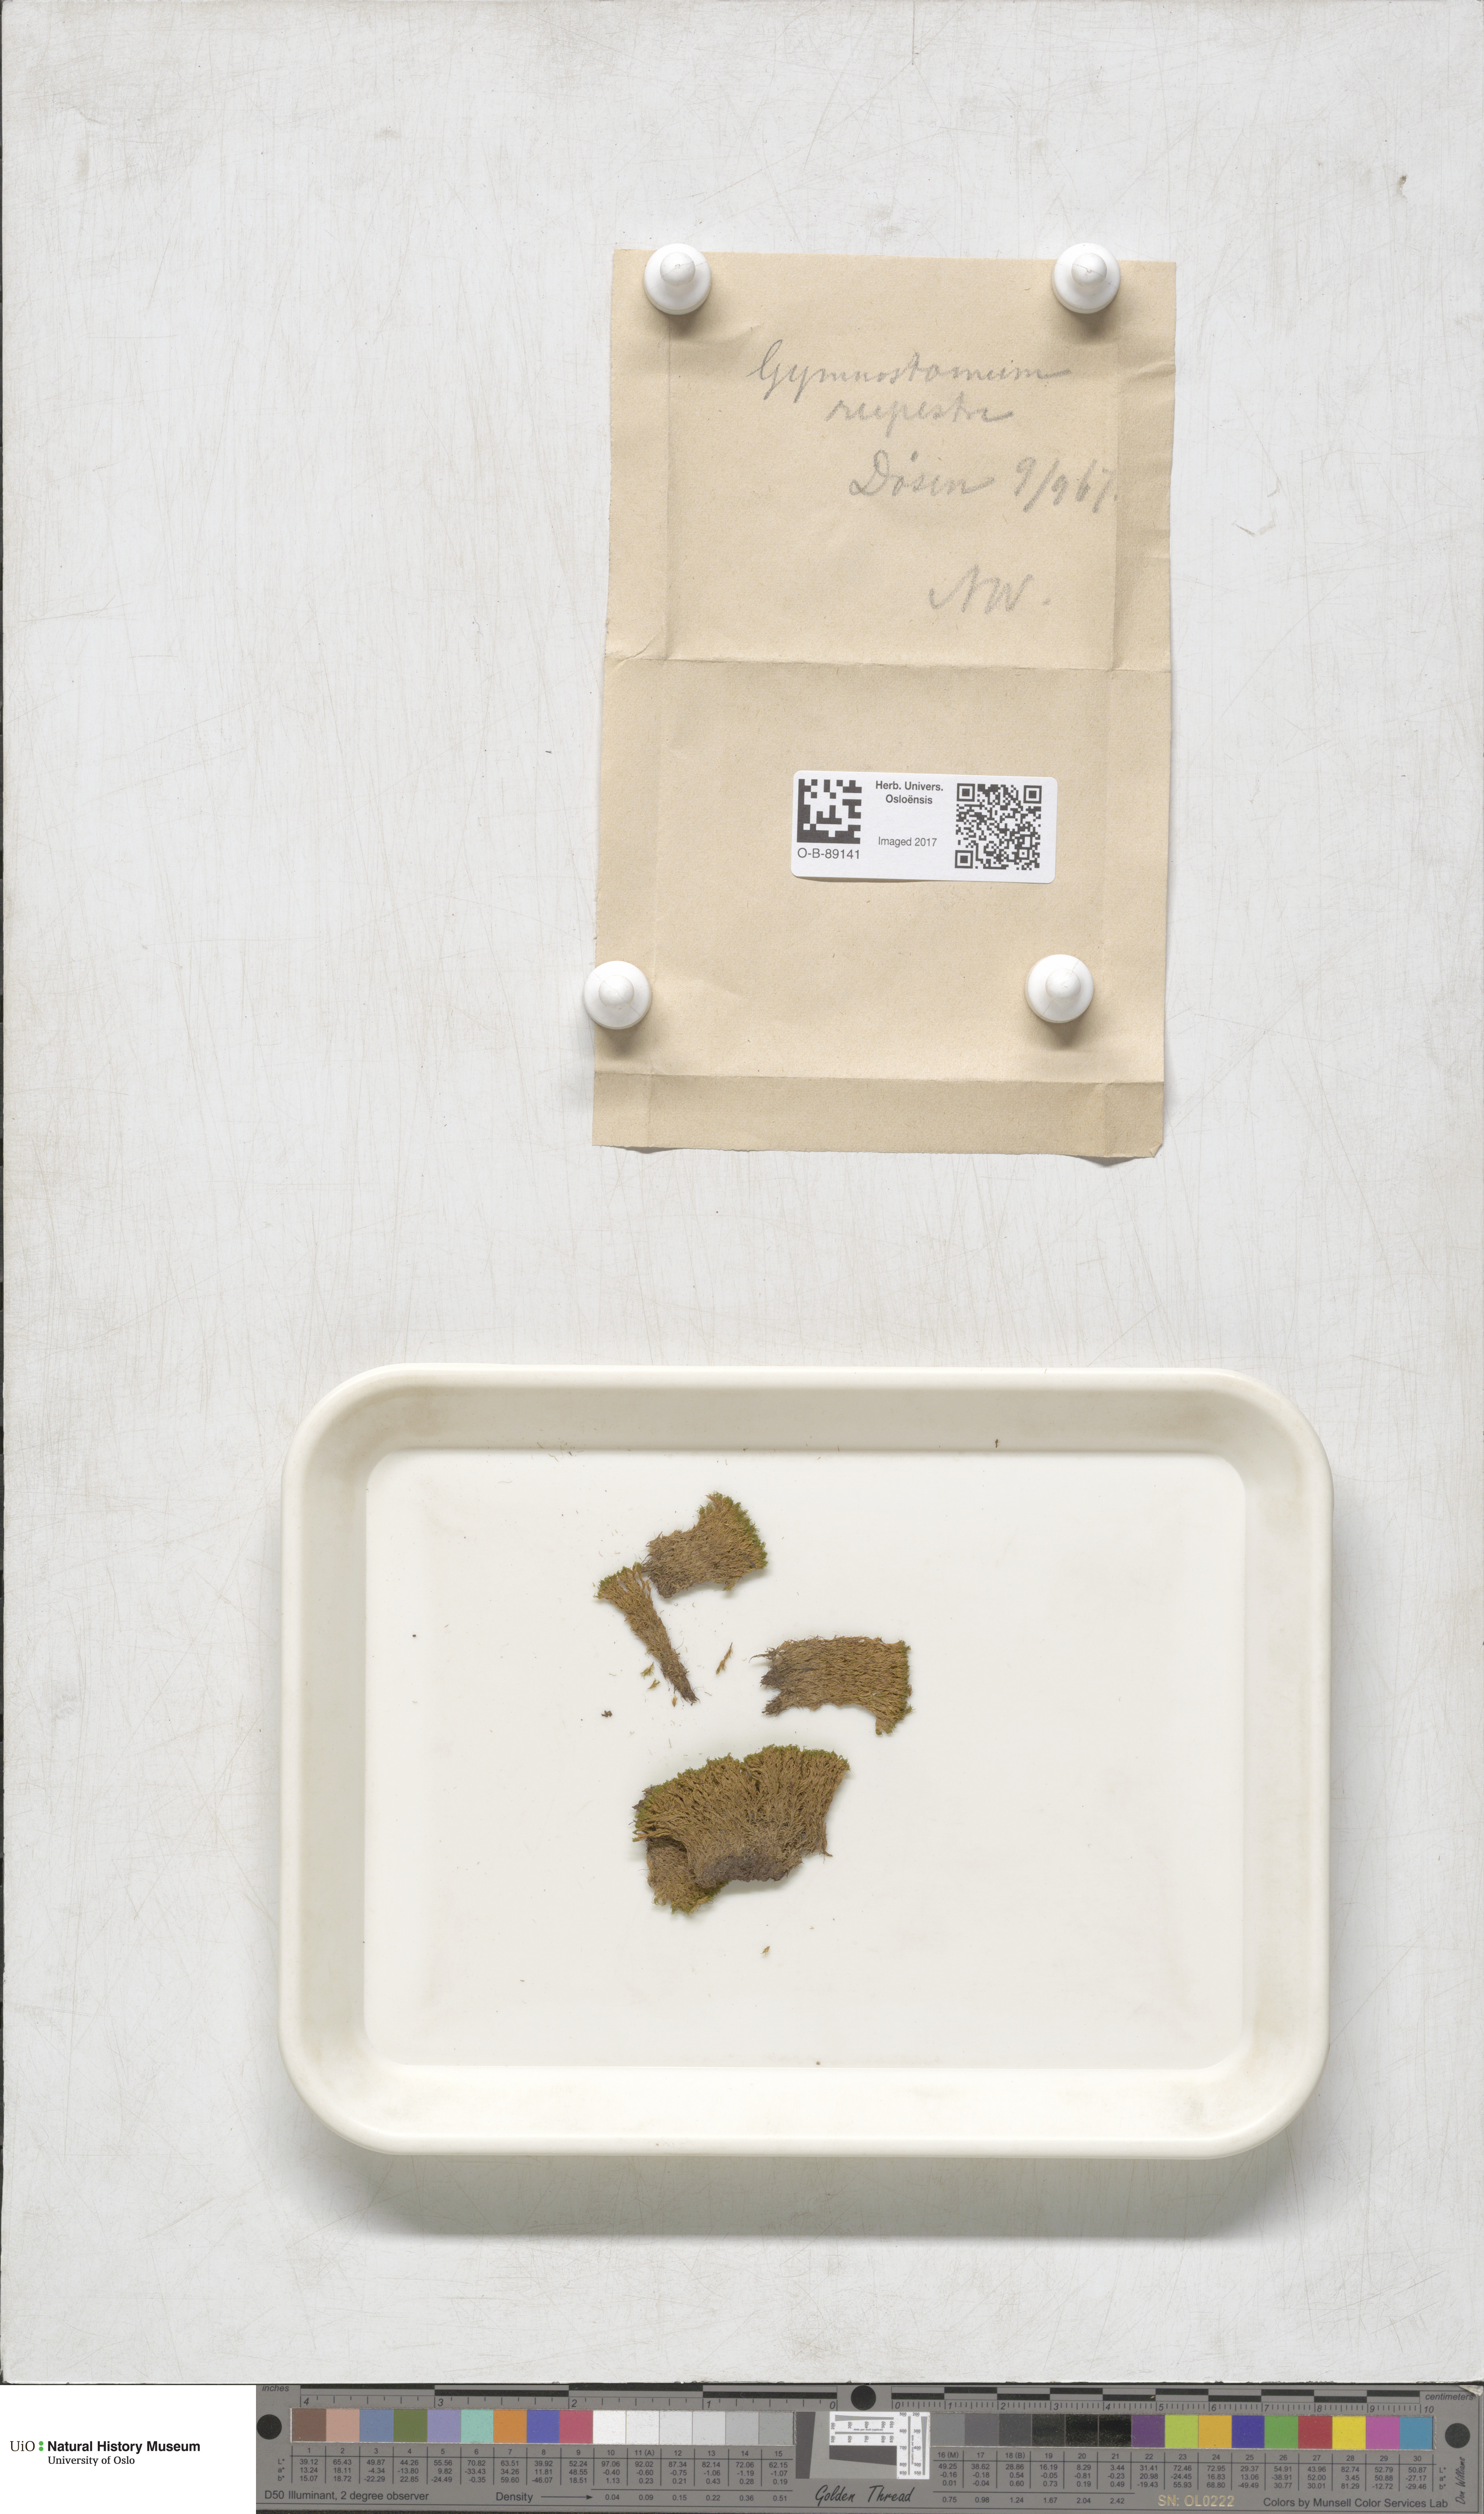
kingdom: Plantae
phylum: Bryophyta
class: Bryopsida
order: Pottiales
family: Pottiaceae
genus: Gymnostomum
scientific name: Gymnostomum aeruginosum
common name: Verdigris tufa-moss
